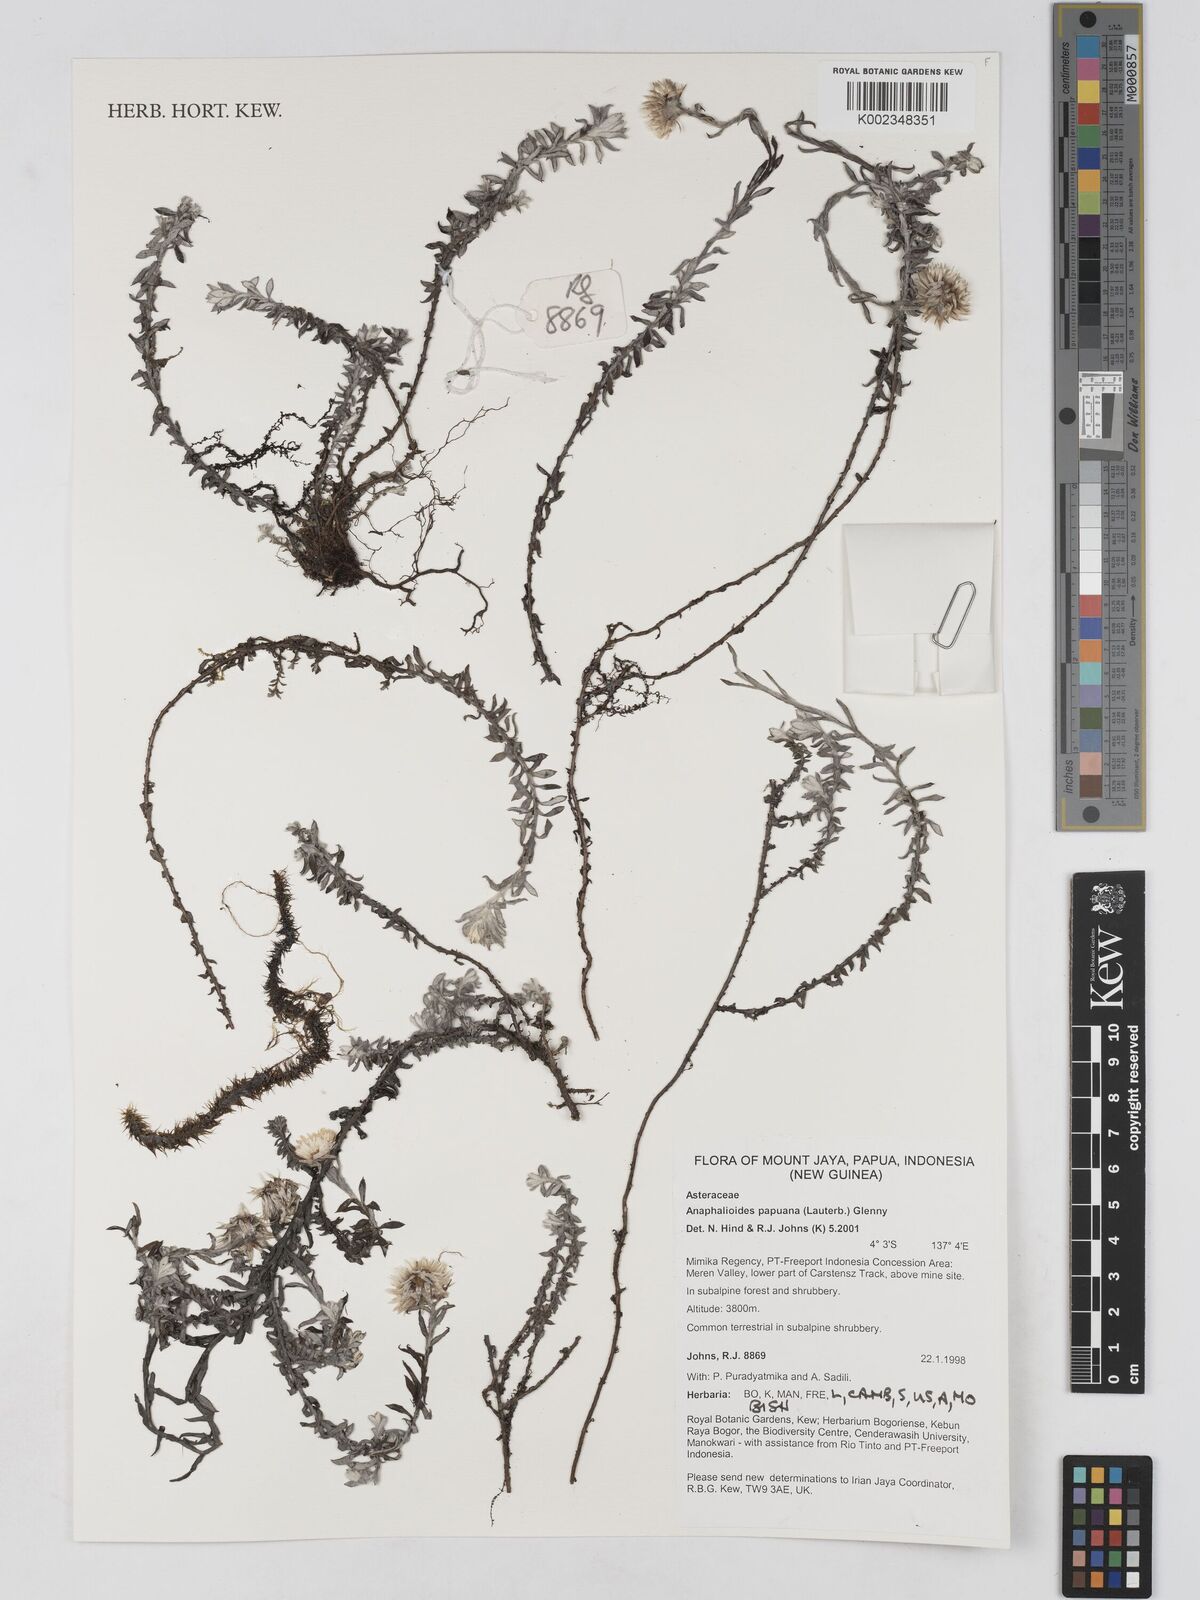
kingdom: Plantae
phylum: Tracheophyta
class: Magnoliopsida
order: Asterales
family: Asteraceae
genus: Anaphalioides
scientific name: Anaphalioides papuana
